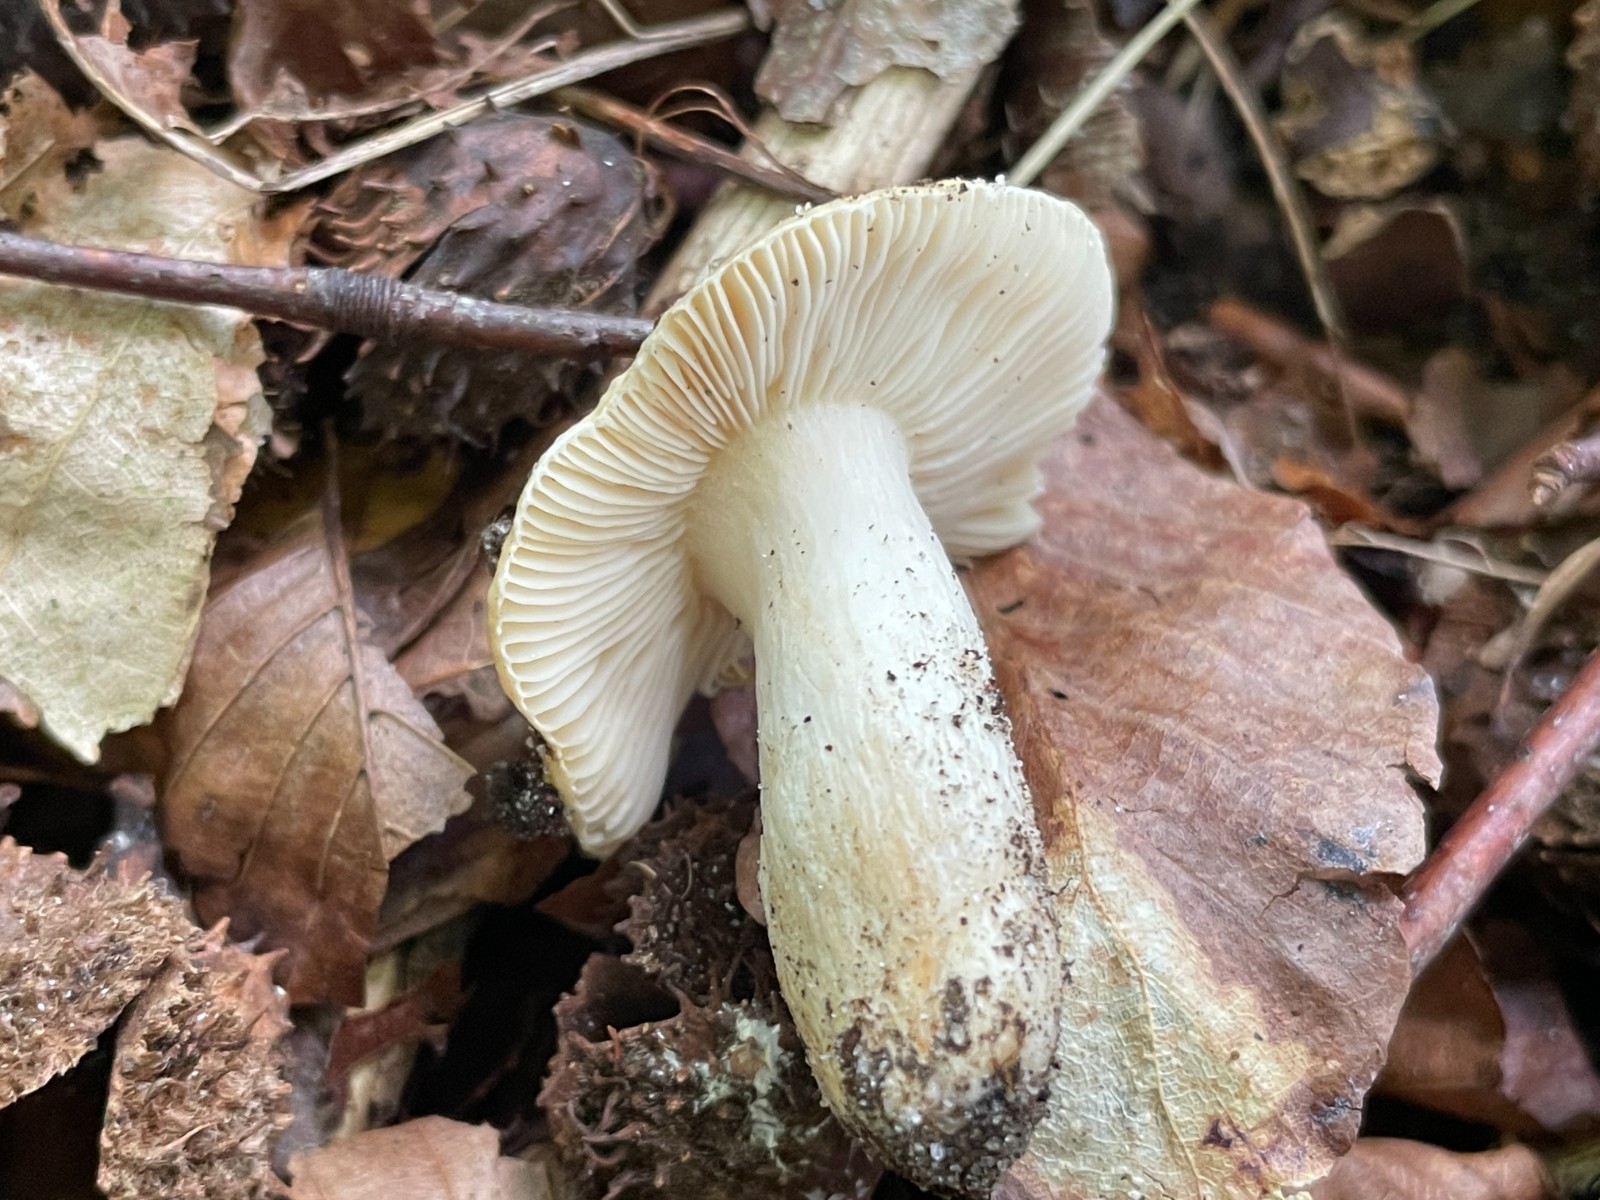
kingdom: Fungi
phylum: Basidiomycota
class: Agaricomycetes
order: Russulales
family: Russulaceae
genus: Russula
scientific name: Russula fellea
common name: galde-skørhat
